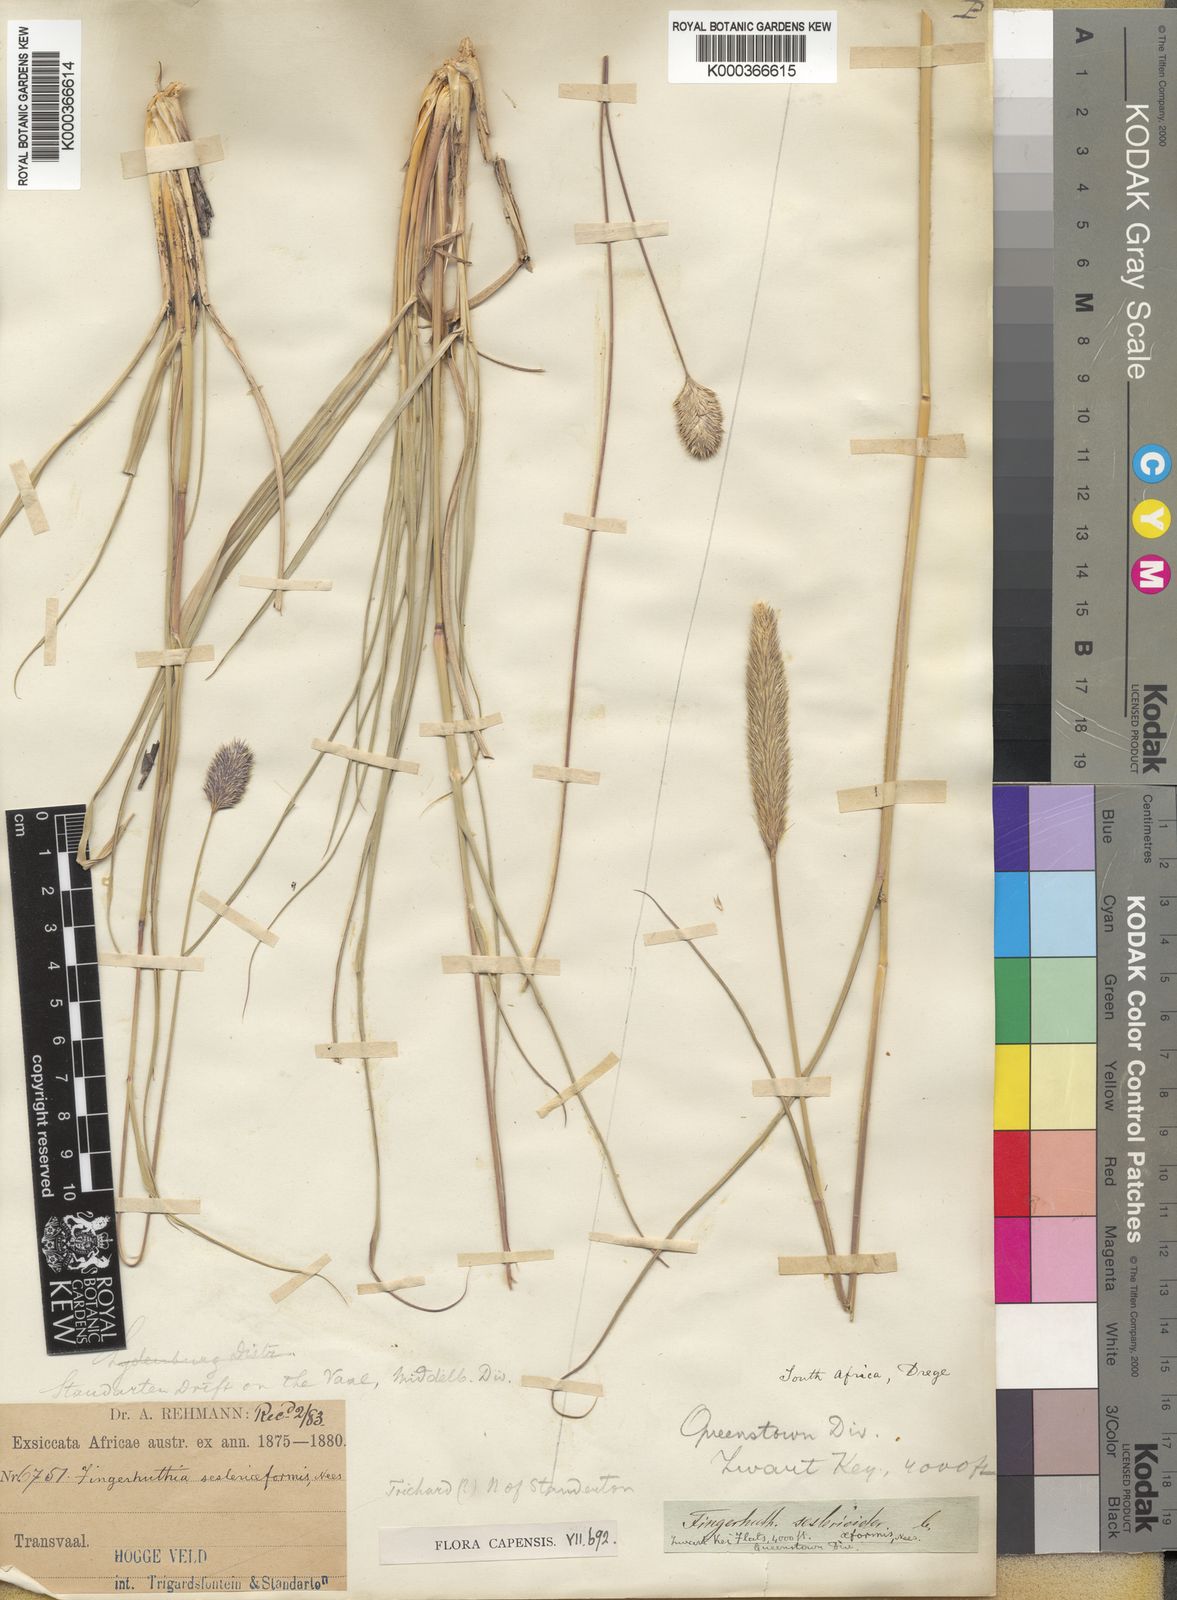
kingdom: Plantae
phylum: Tracheophyta
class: Liliopsida
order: Poales
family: Poaceae
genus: Fingerhuthia
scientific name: Fingerhuthia sesleriiformis
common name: Thimble grass
